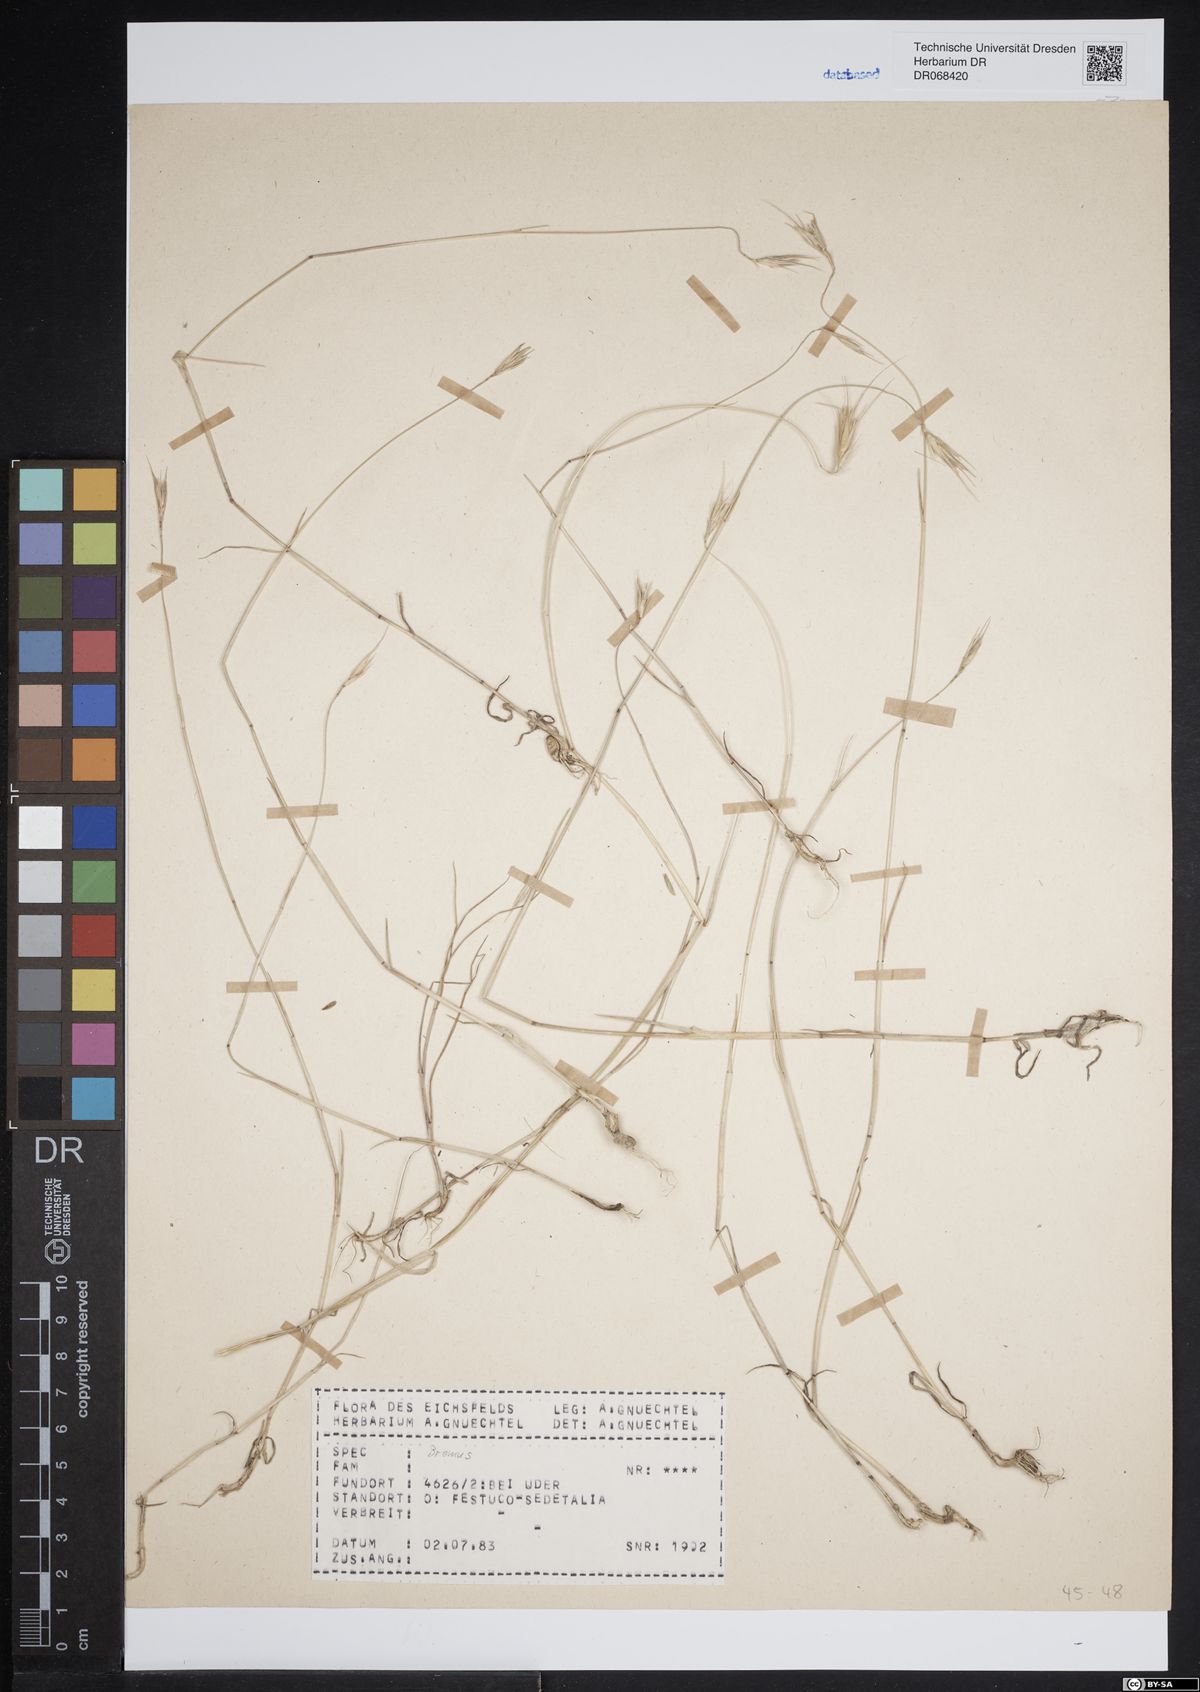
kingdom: Plantae
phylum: Tracheophyta
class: Liliopsida
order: Poales
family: Poaceae
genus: Bromus
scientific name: Bromus
